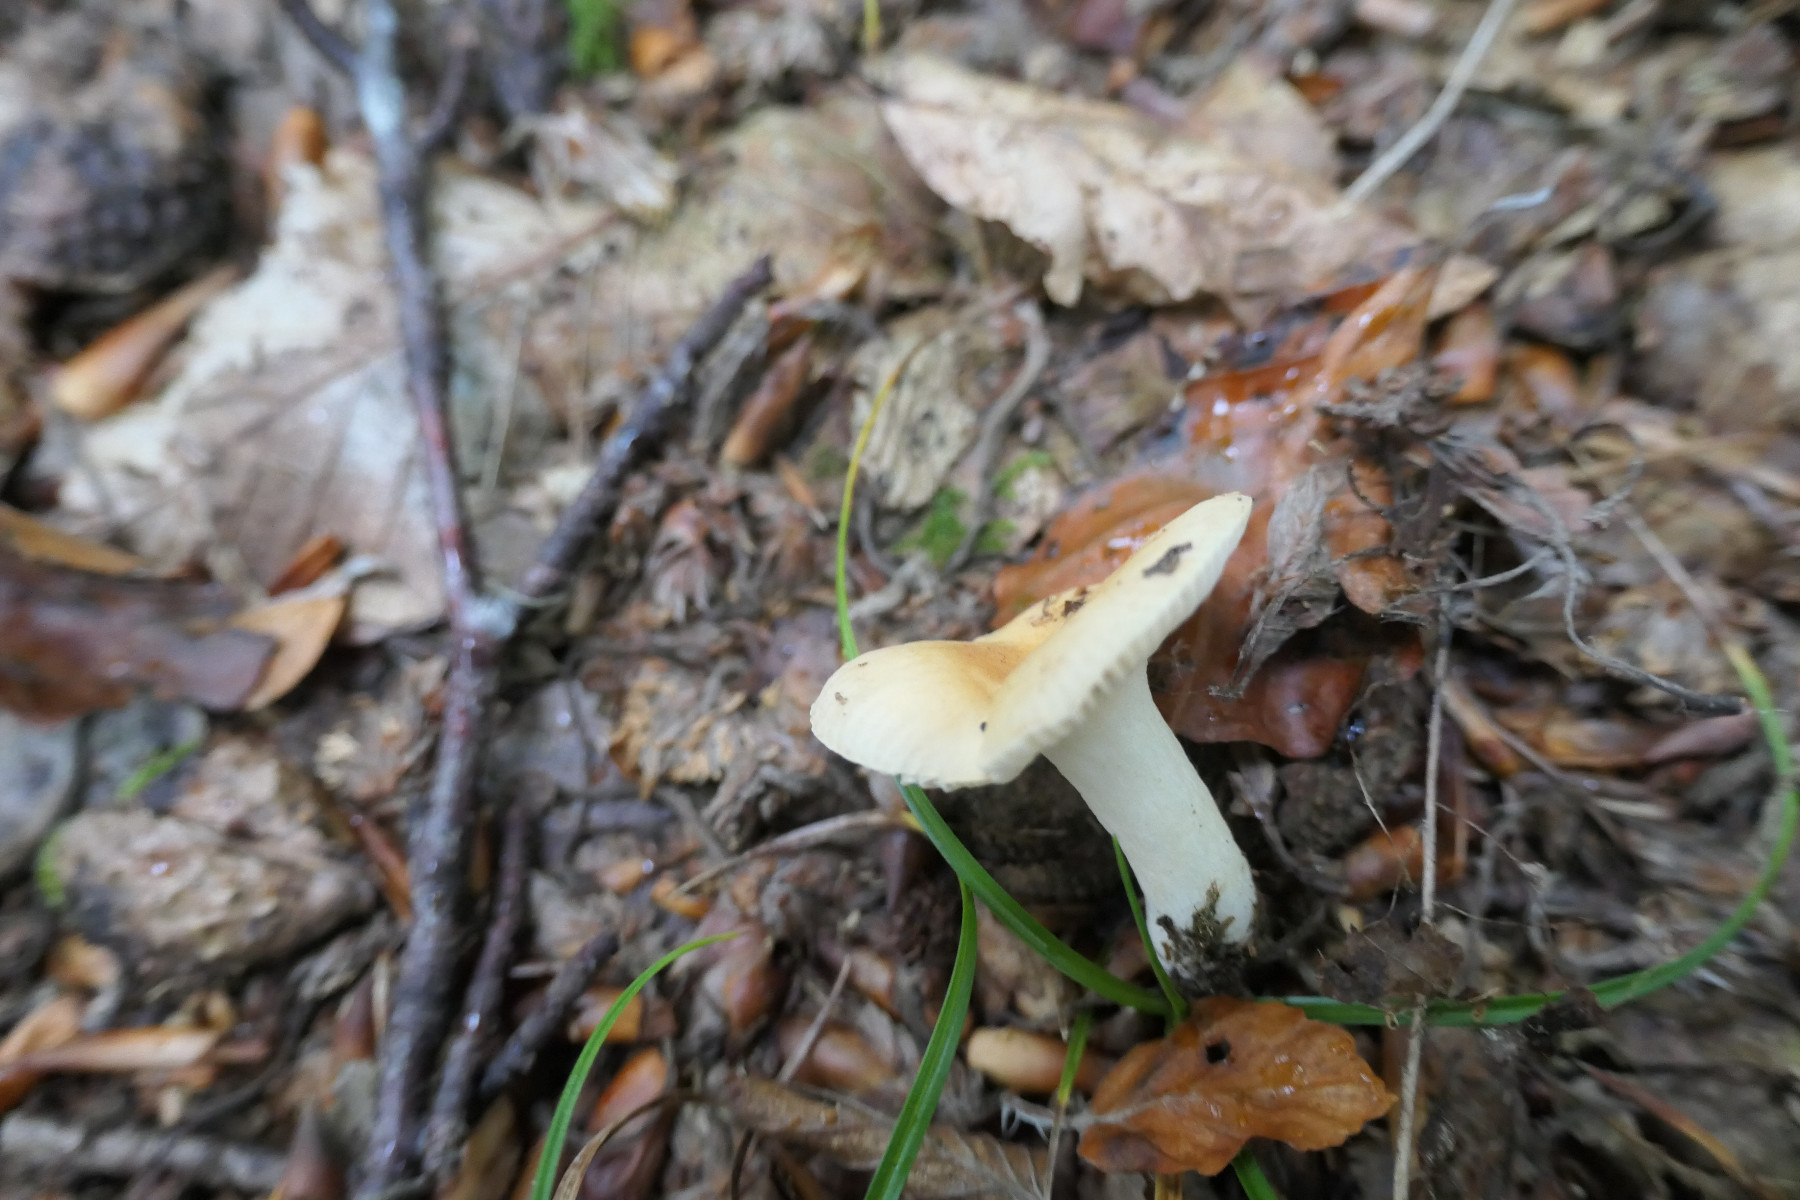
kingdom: Fungi
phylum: Basidiomycota
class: Agaricomycetes
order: Russulales
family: Russulaceae
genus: Russula
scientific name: Russula solaris
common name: sol-skørhat
